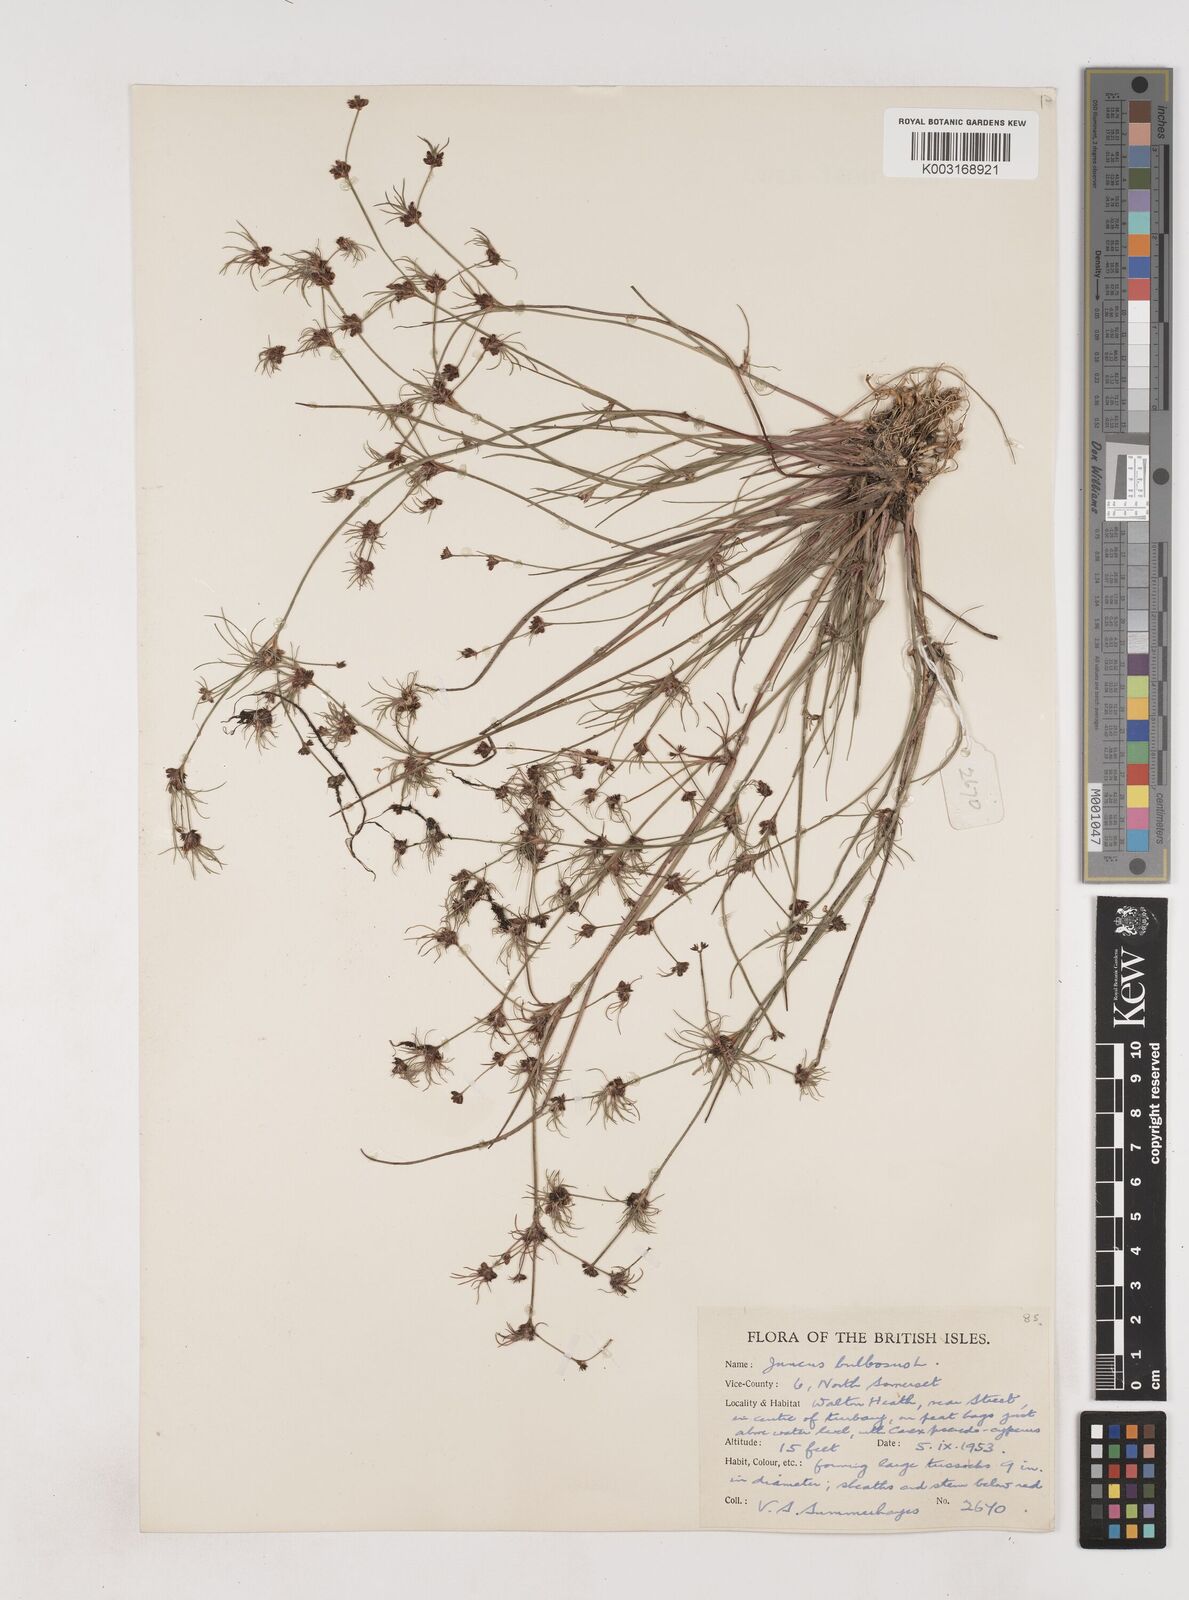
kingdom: Plantae
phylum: Tracheophyta
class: Liliopsida
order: Poales
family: Juncaceae
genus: Juncus
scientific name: Juncus bulbosus
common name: Bulbous rush
